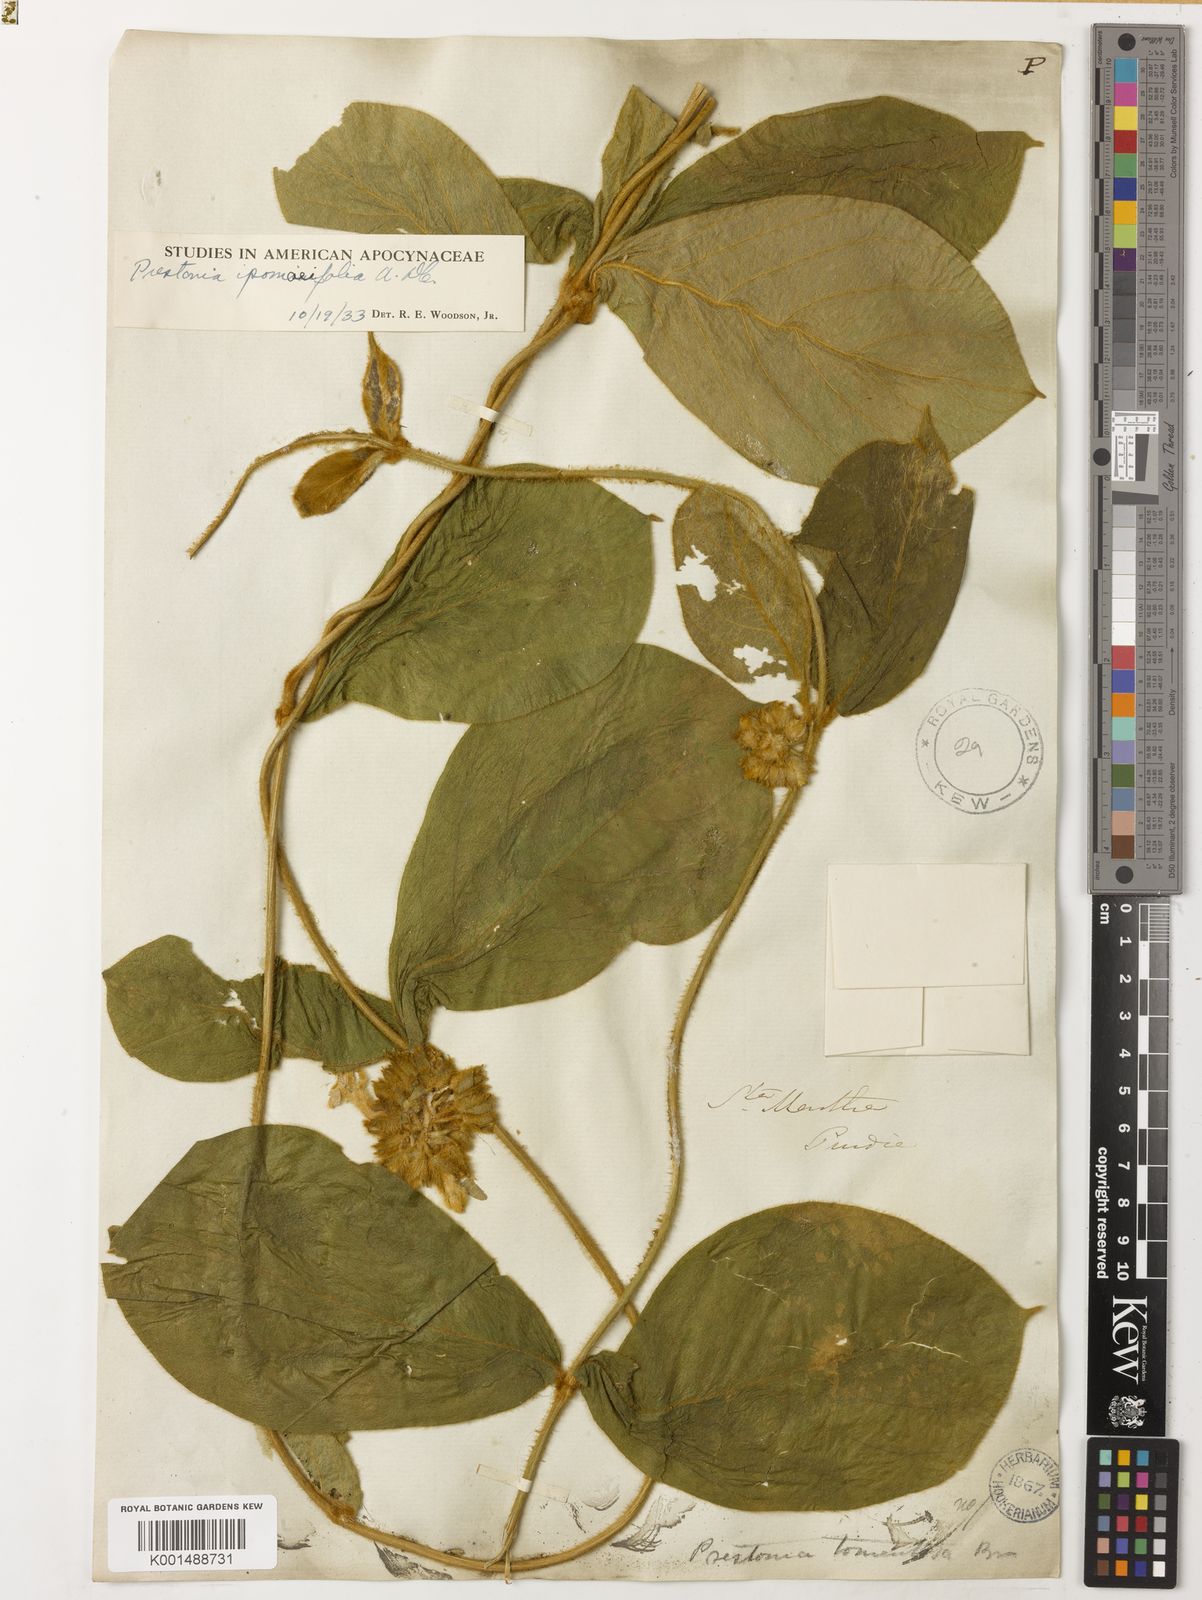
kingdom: Plantae
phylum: Tracheophyta
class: Magnoliopsida
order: Gentianales
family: Apocynaceae
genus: Prestonia
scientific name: Prestonia ipomaeifolia
